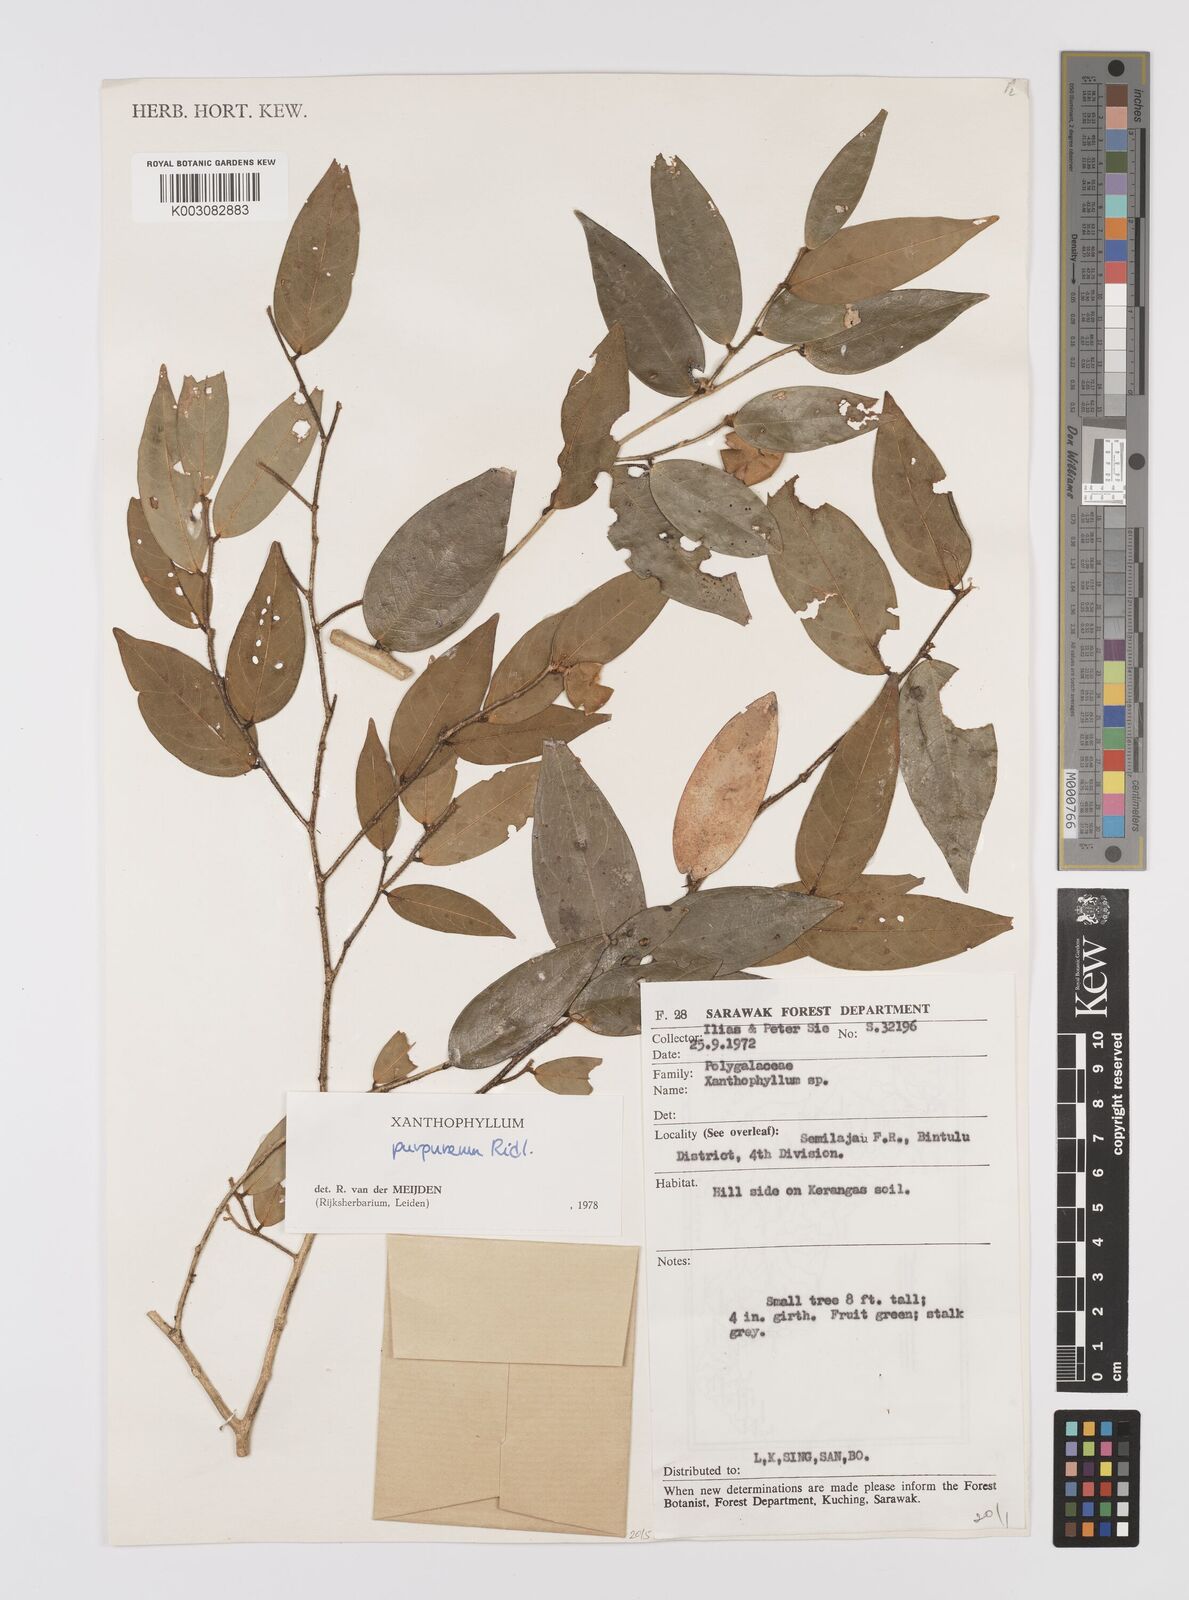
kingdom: Plantae
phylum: Tracheophyta
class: Magnoliopsida
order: Fabales
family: Polygalaceae
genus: Xanthophyllum
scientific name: Xanthophyllum purpureum
